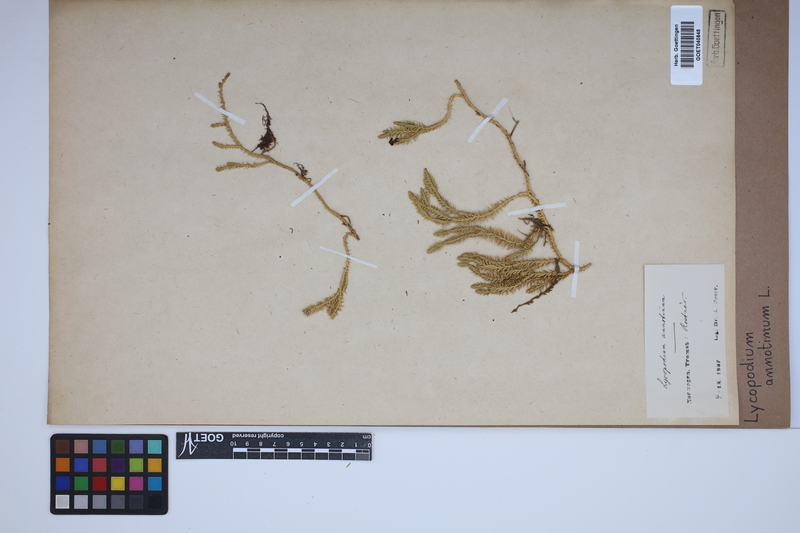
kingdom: Plantae
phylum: Tracheophyta
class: Lycopodiopsida
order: Lycopodiales
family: Lycopodiaceae
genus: Spinulum
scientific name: Spinulum annotinum
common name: Interrupted club-moss
